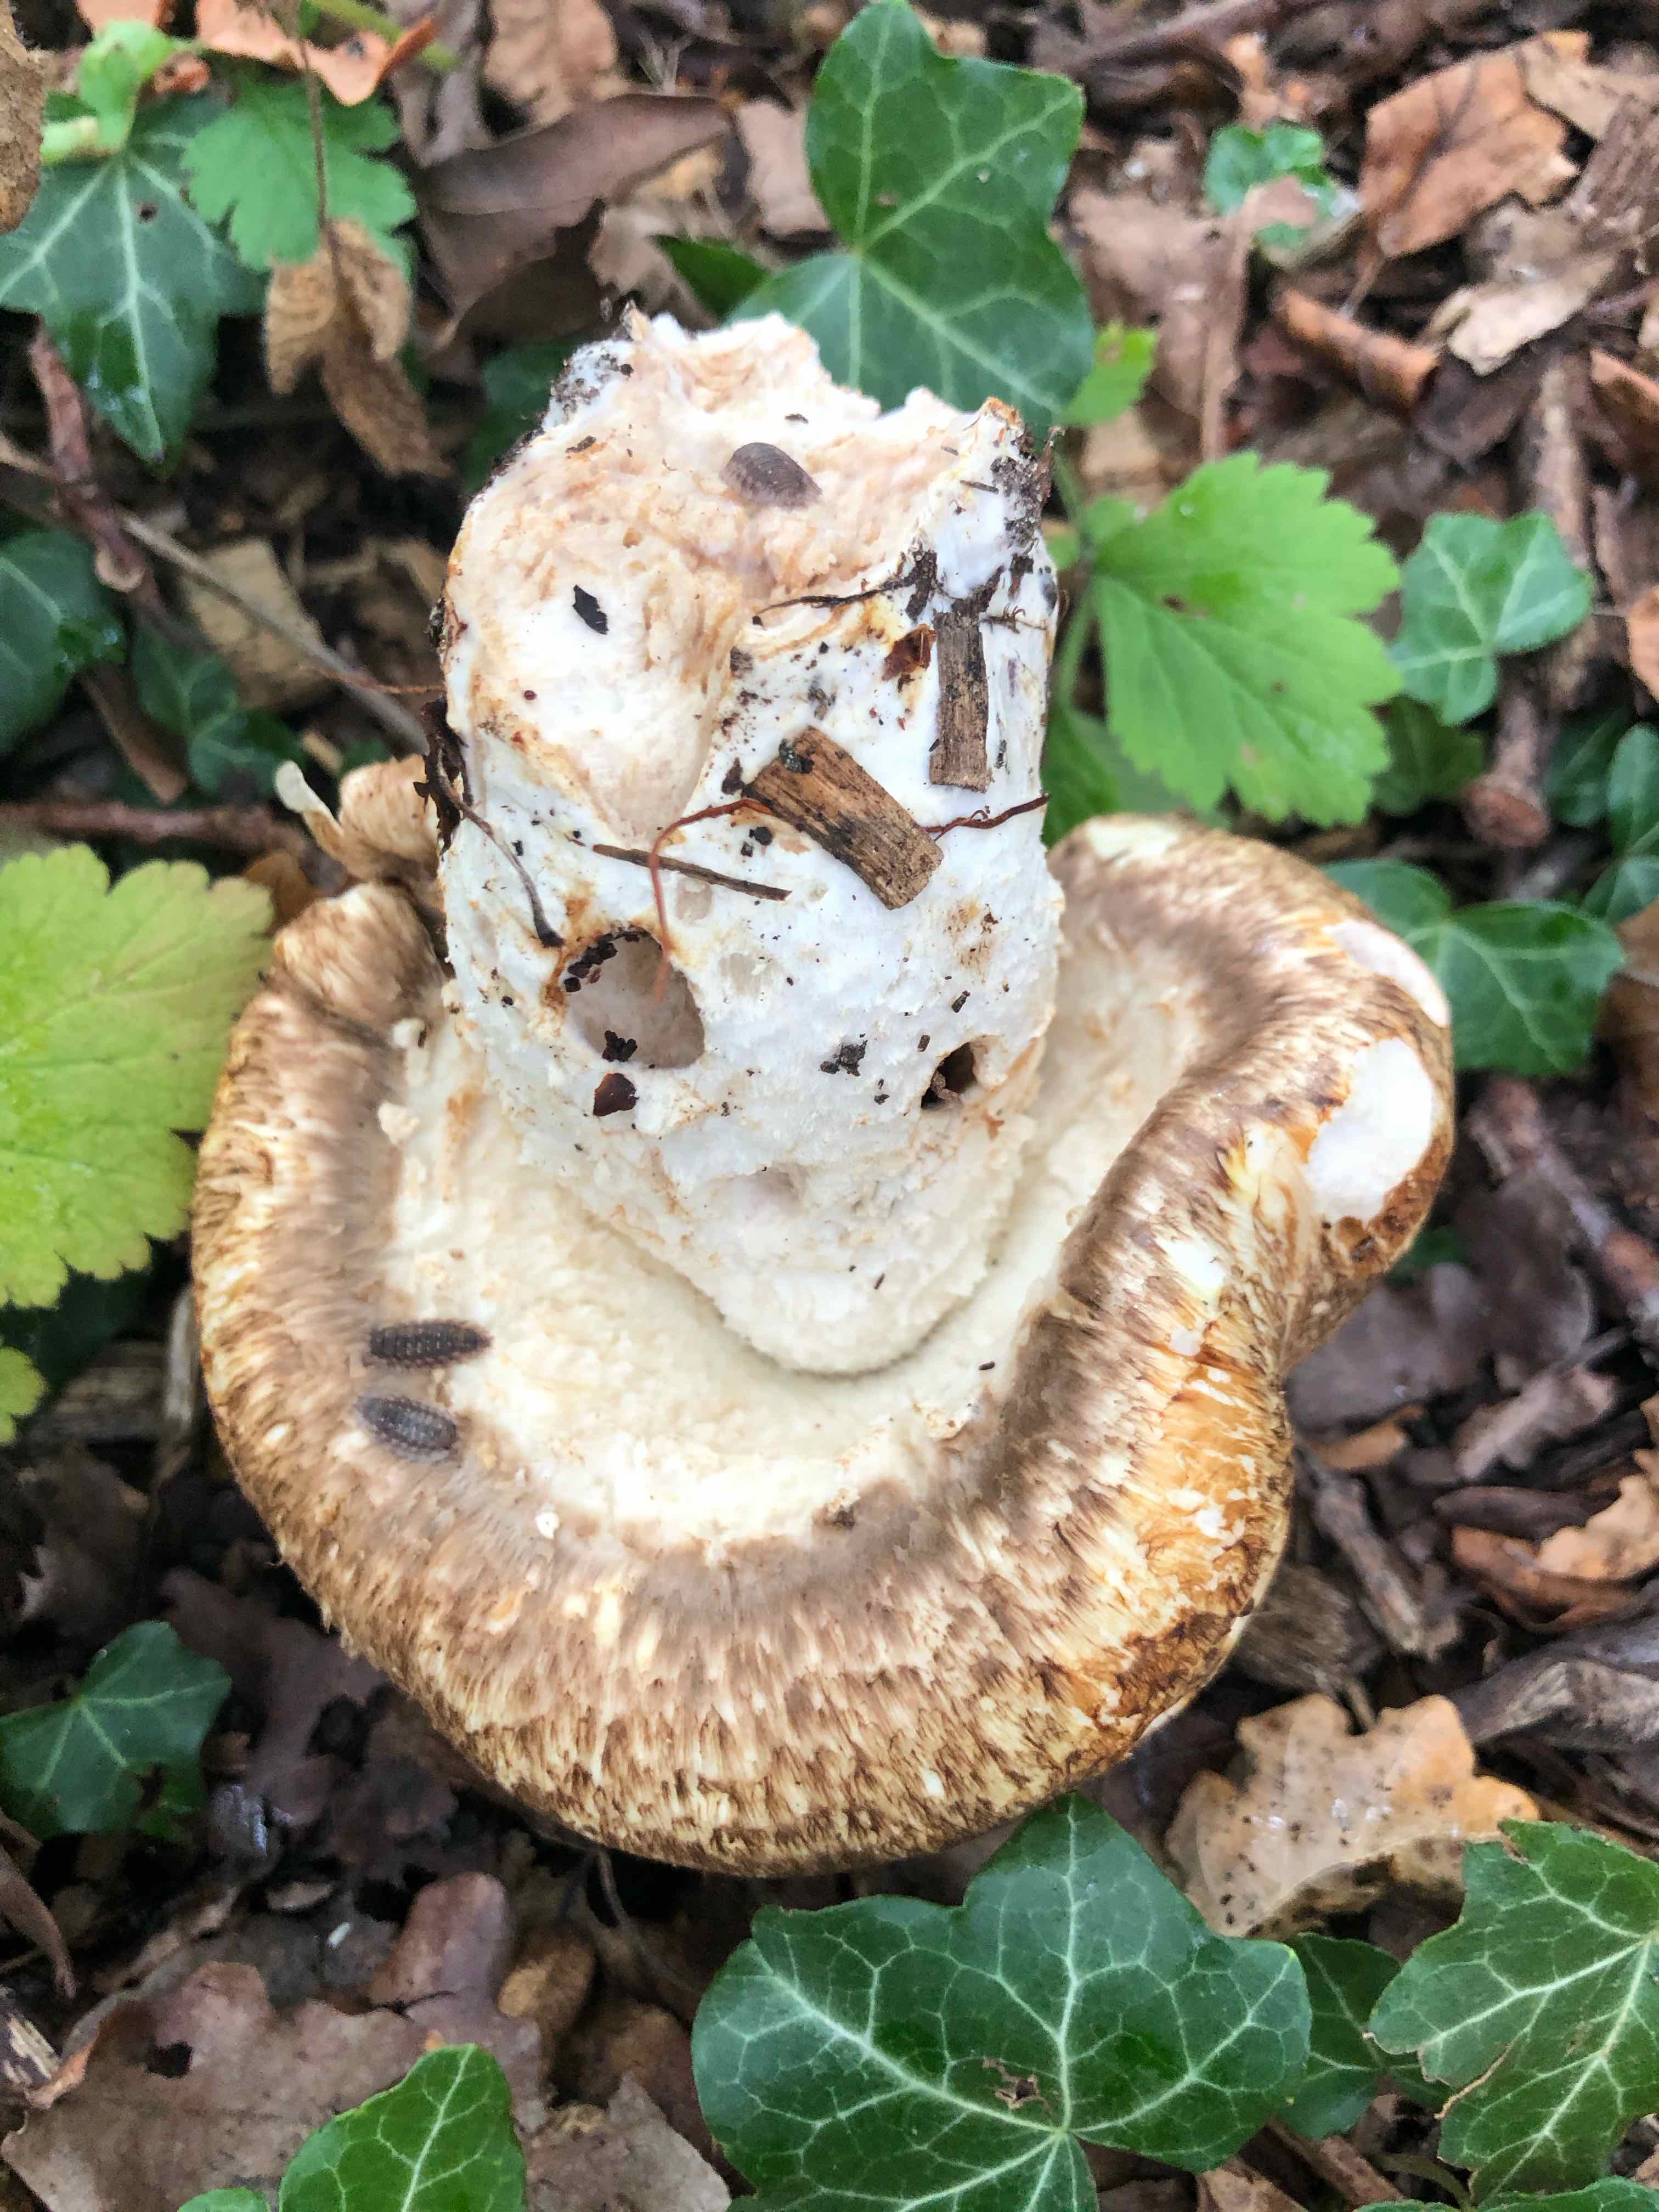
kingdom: Fungi
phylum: Basidiomycota
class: Agaricomycetes
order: Agaricales
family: Agaricaceae
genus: Agaricus
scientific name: Agaricus augustus
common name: prægtig champignon
